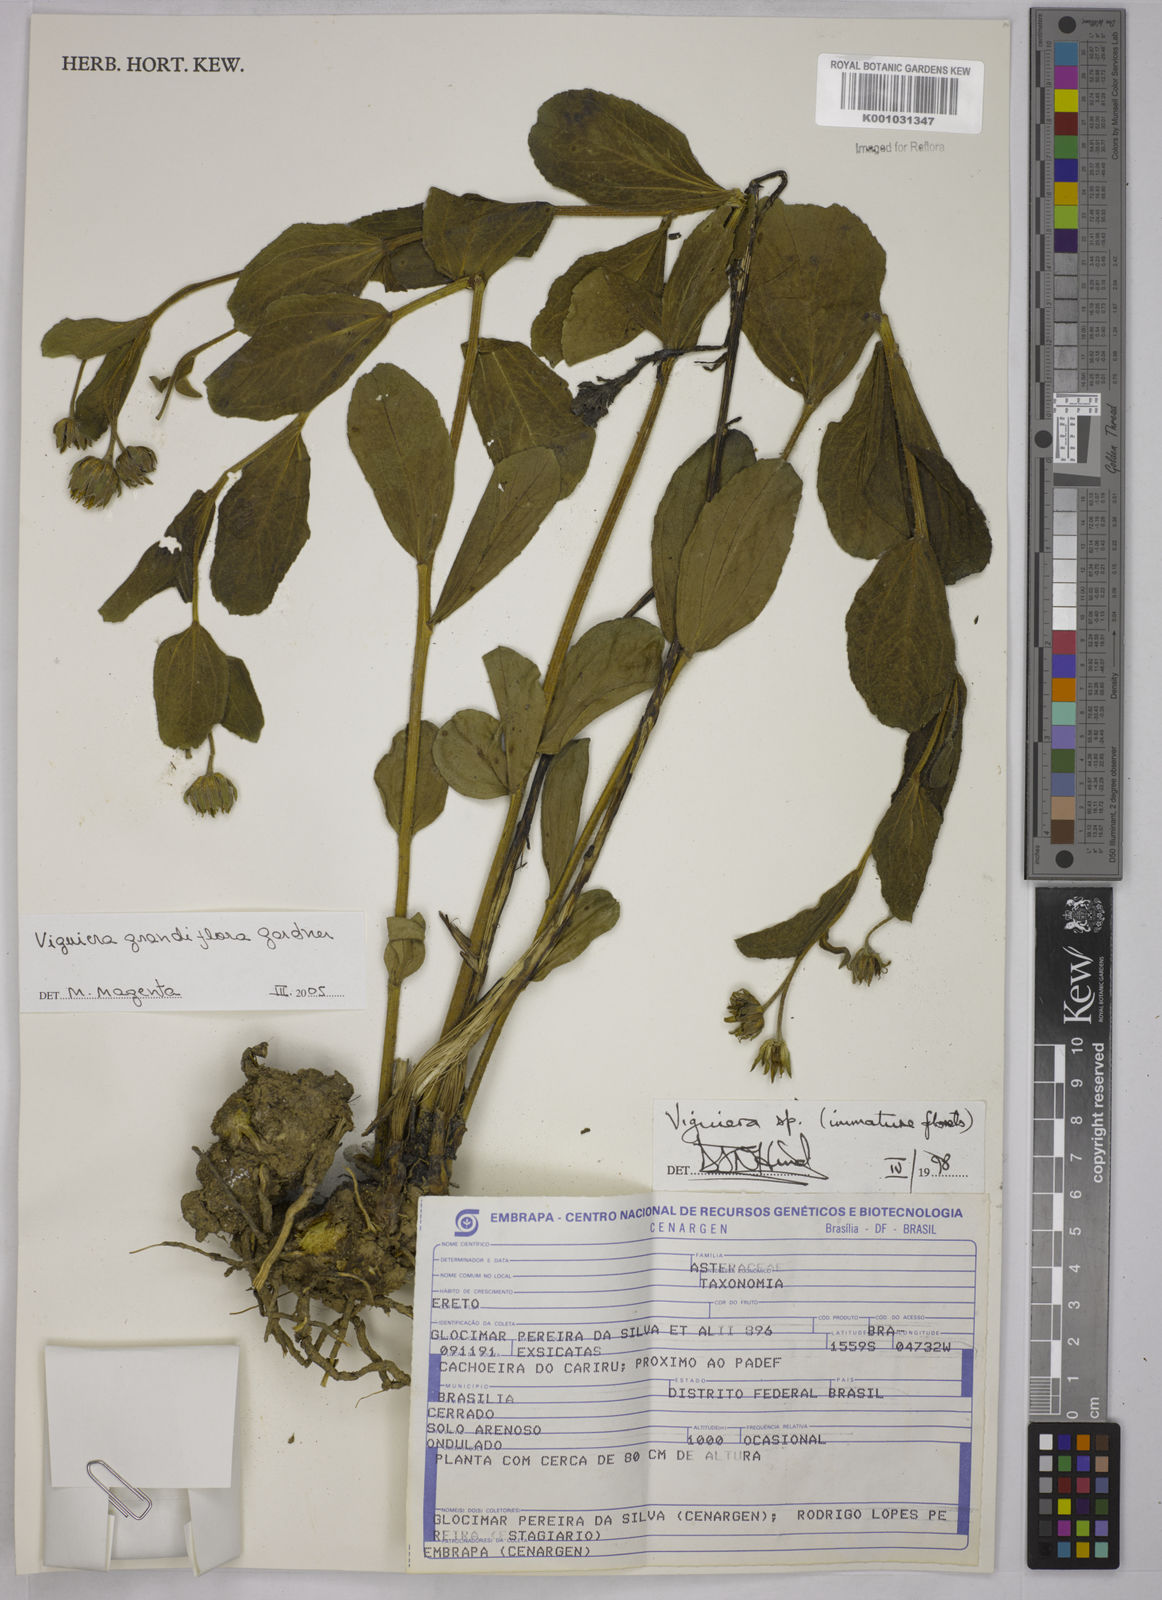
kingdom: Plantae
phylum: Tracheophyta
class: Magnoliopsida
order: Asterales
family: Asteraceae
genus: Aldama
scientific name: Aldama grandiflora
